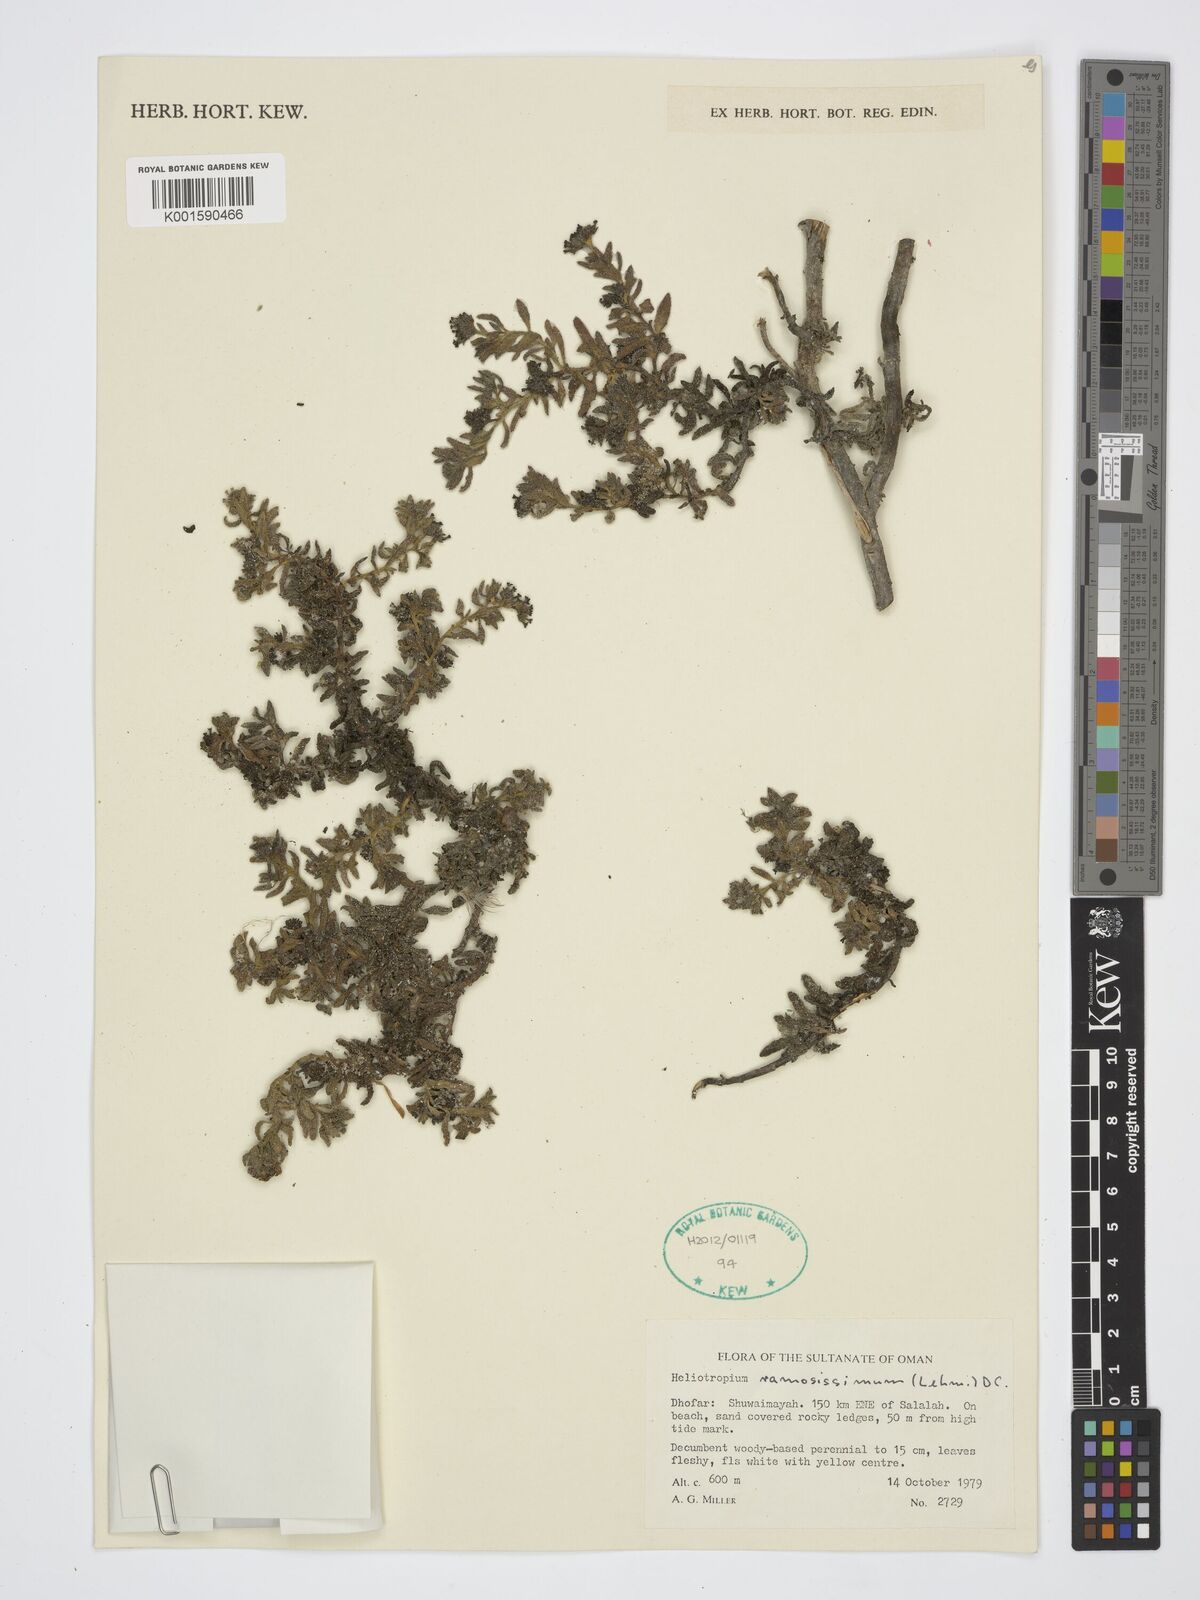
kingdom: Plantae
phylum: Tracheophyta
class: Magnoliopsida
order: Boraginales
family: Heliotropiaceae
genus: Heliotropium
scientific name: Heliotropium ramosissimum
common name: Wavy heliotrope
